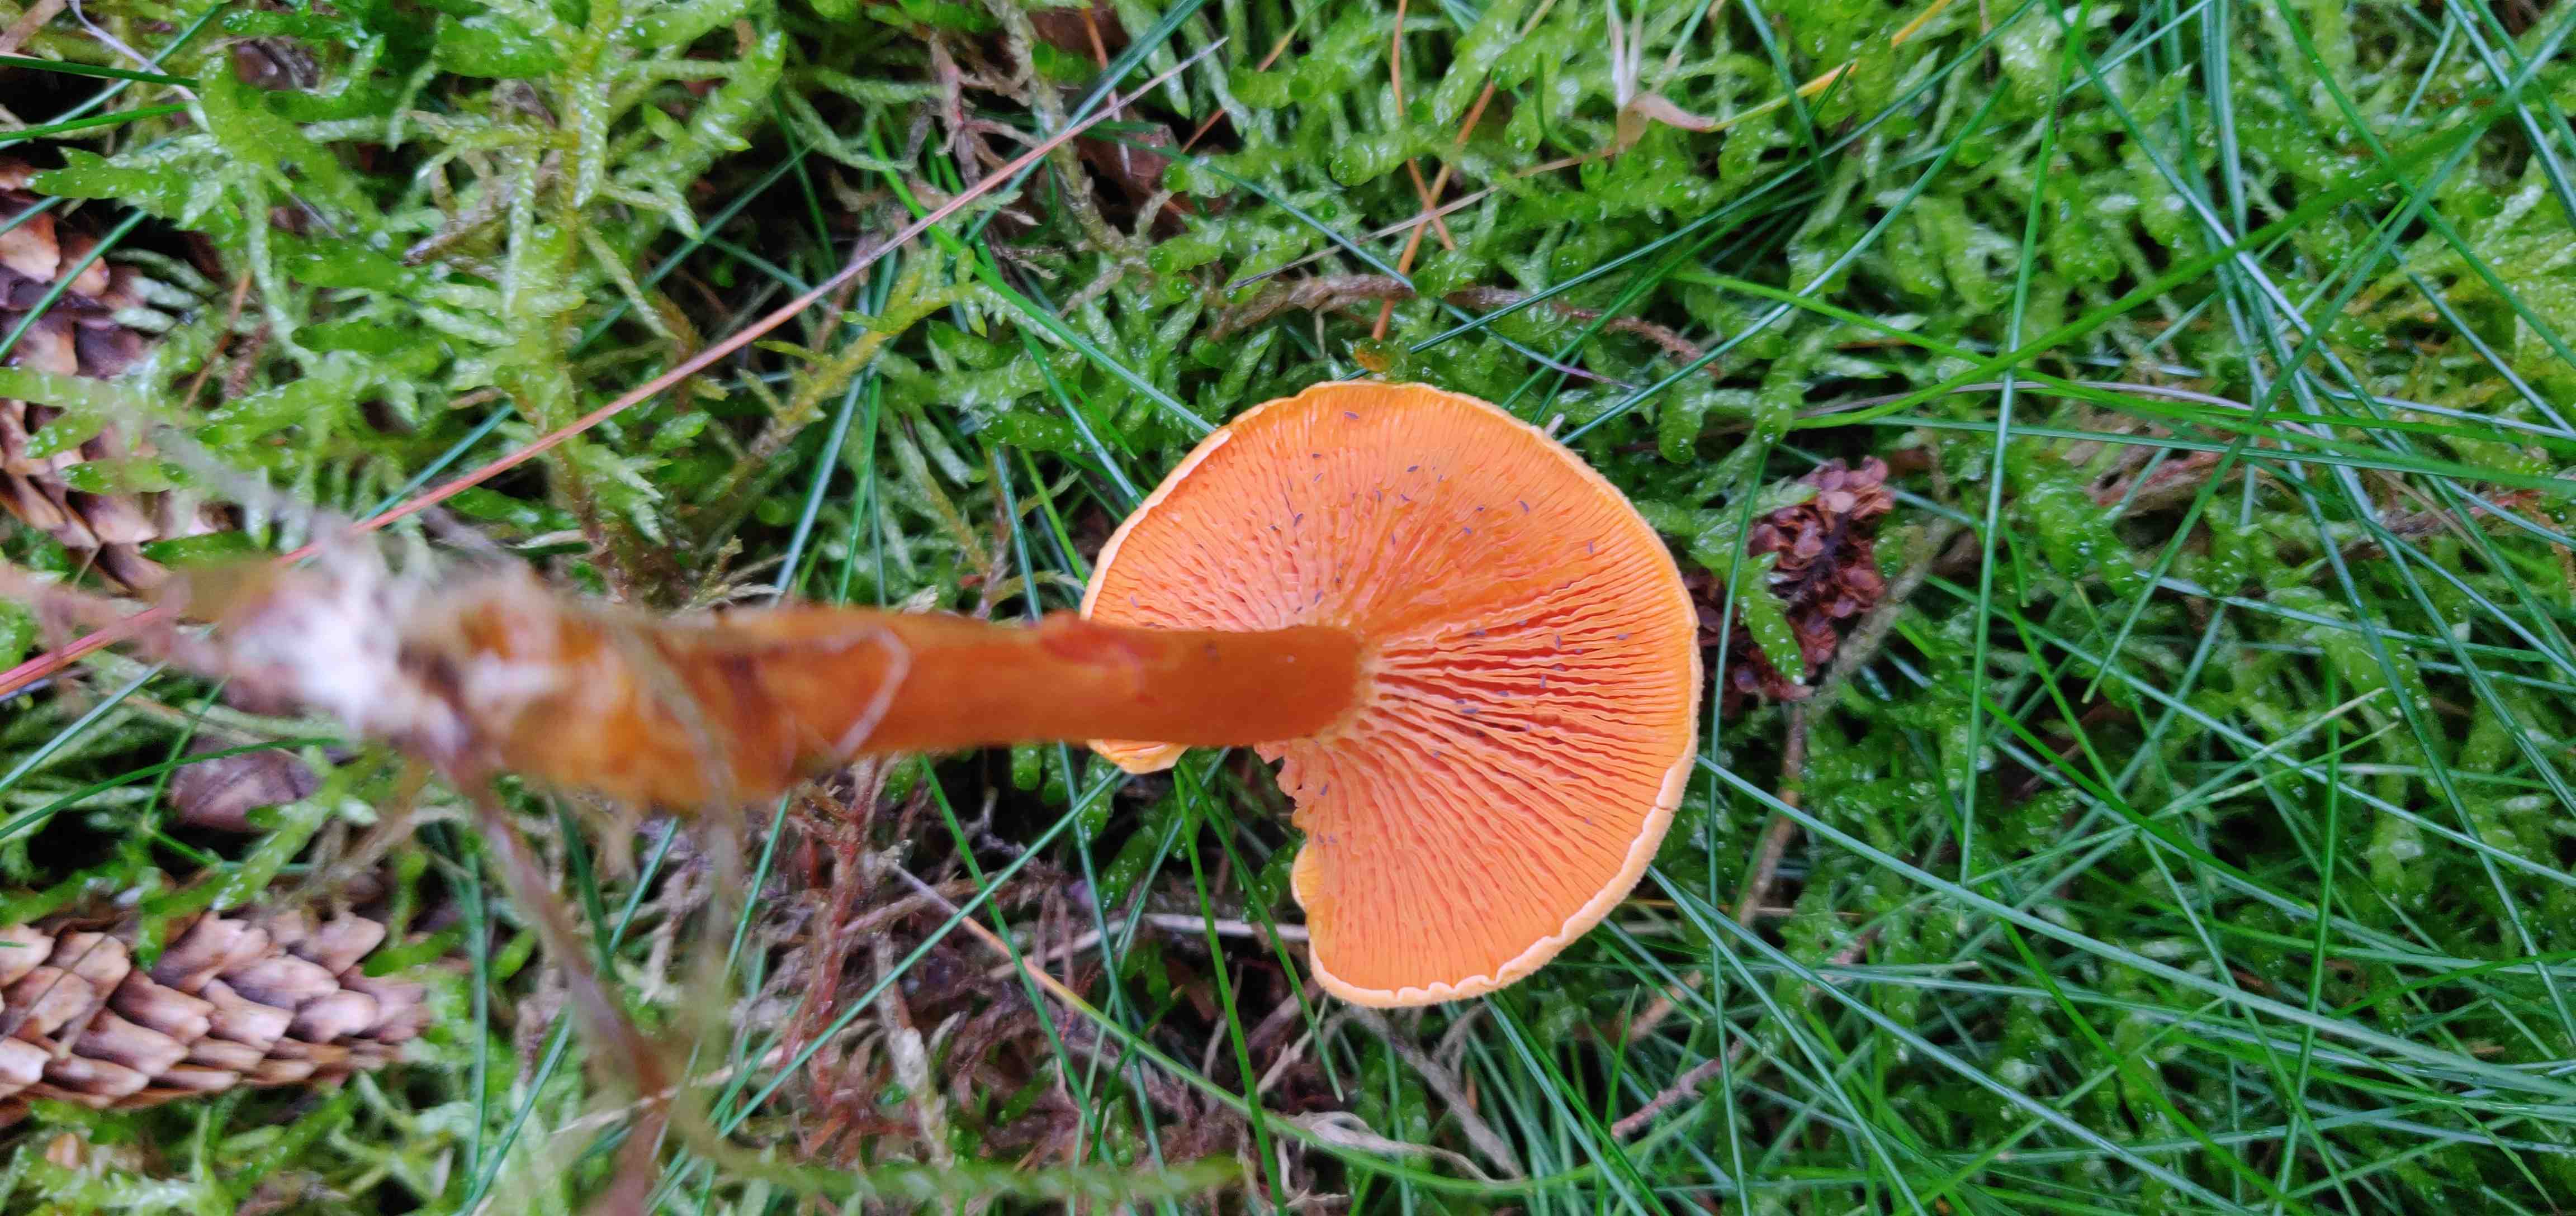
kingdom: Fungi
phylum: Basidiomycota
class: Agaricomycetes
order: Boletales
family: Hygrophoropsidaceae
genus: Hygrophoropsis
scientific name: Hygrophoropsis aurantiaca
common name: almindelig orangekantarel
